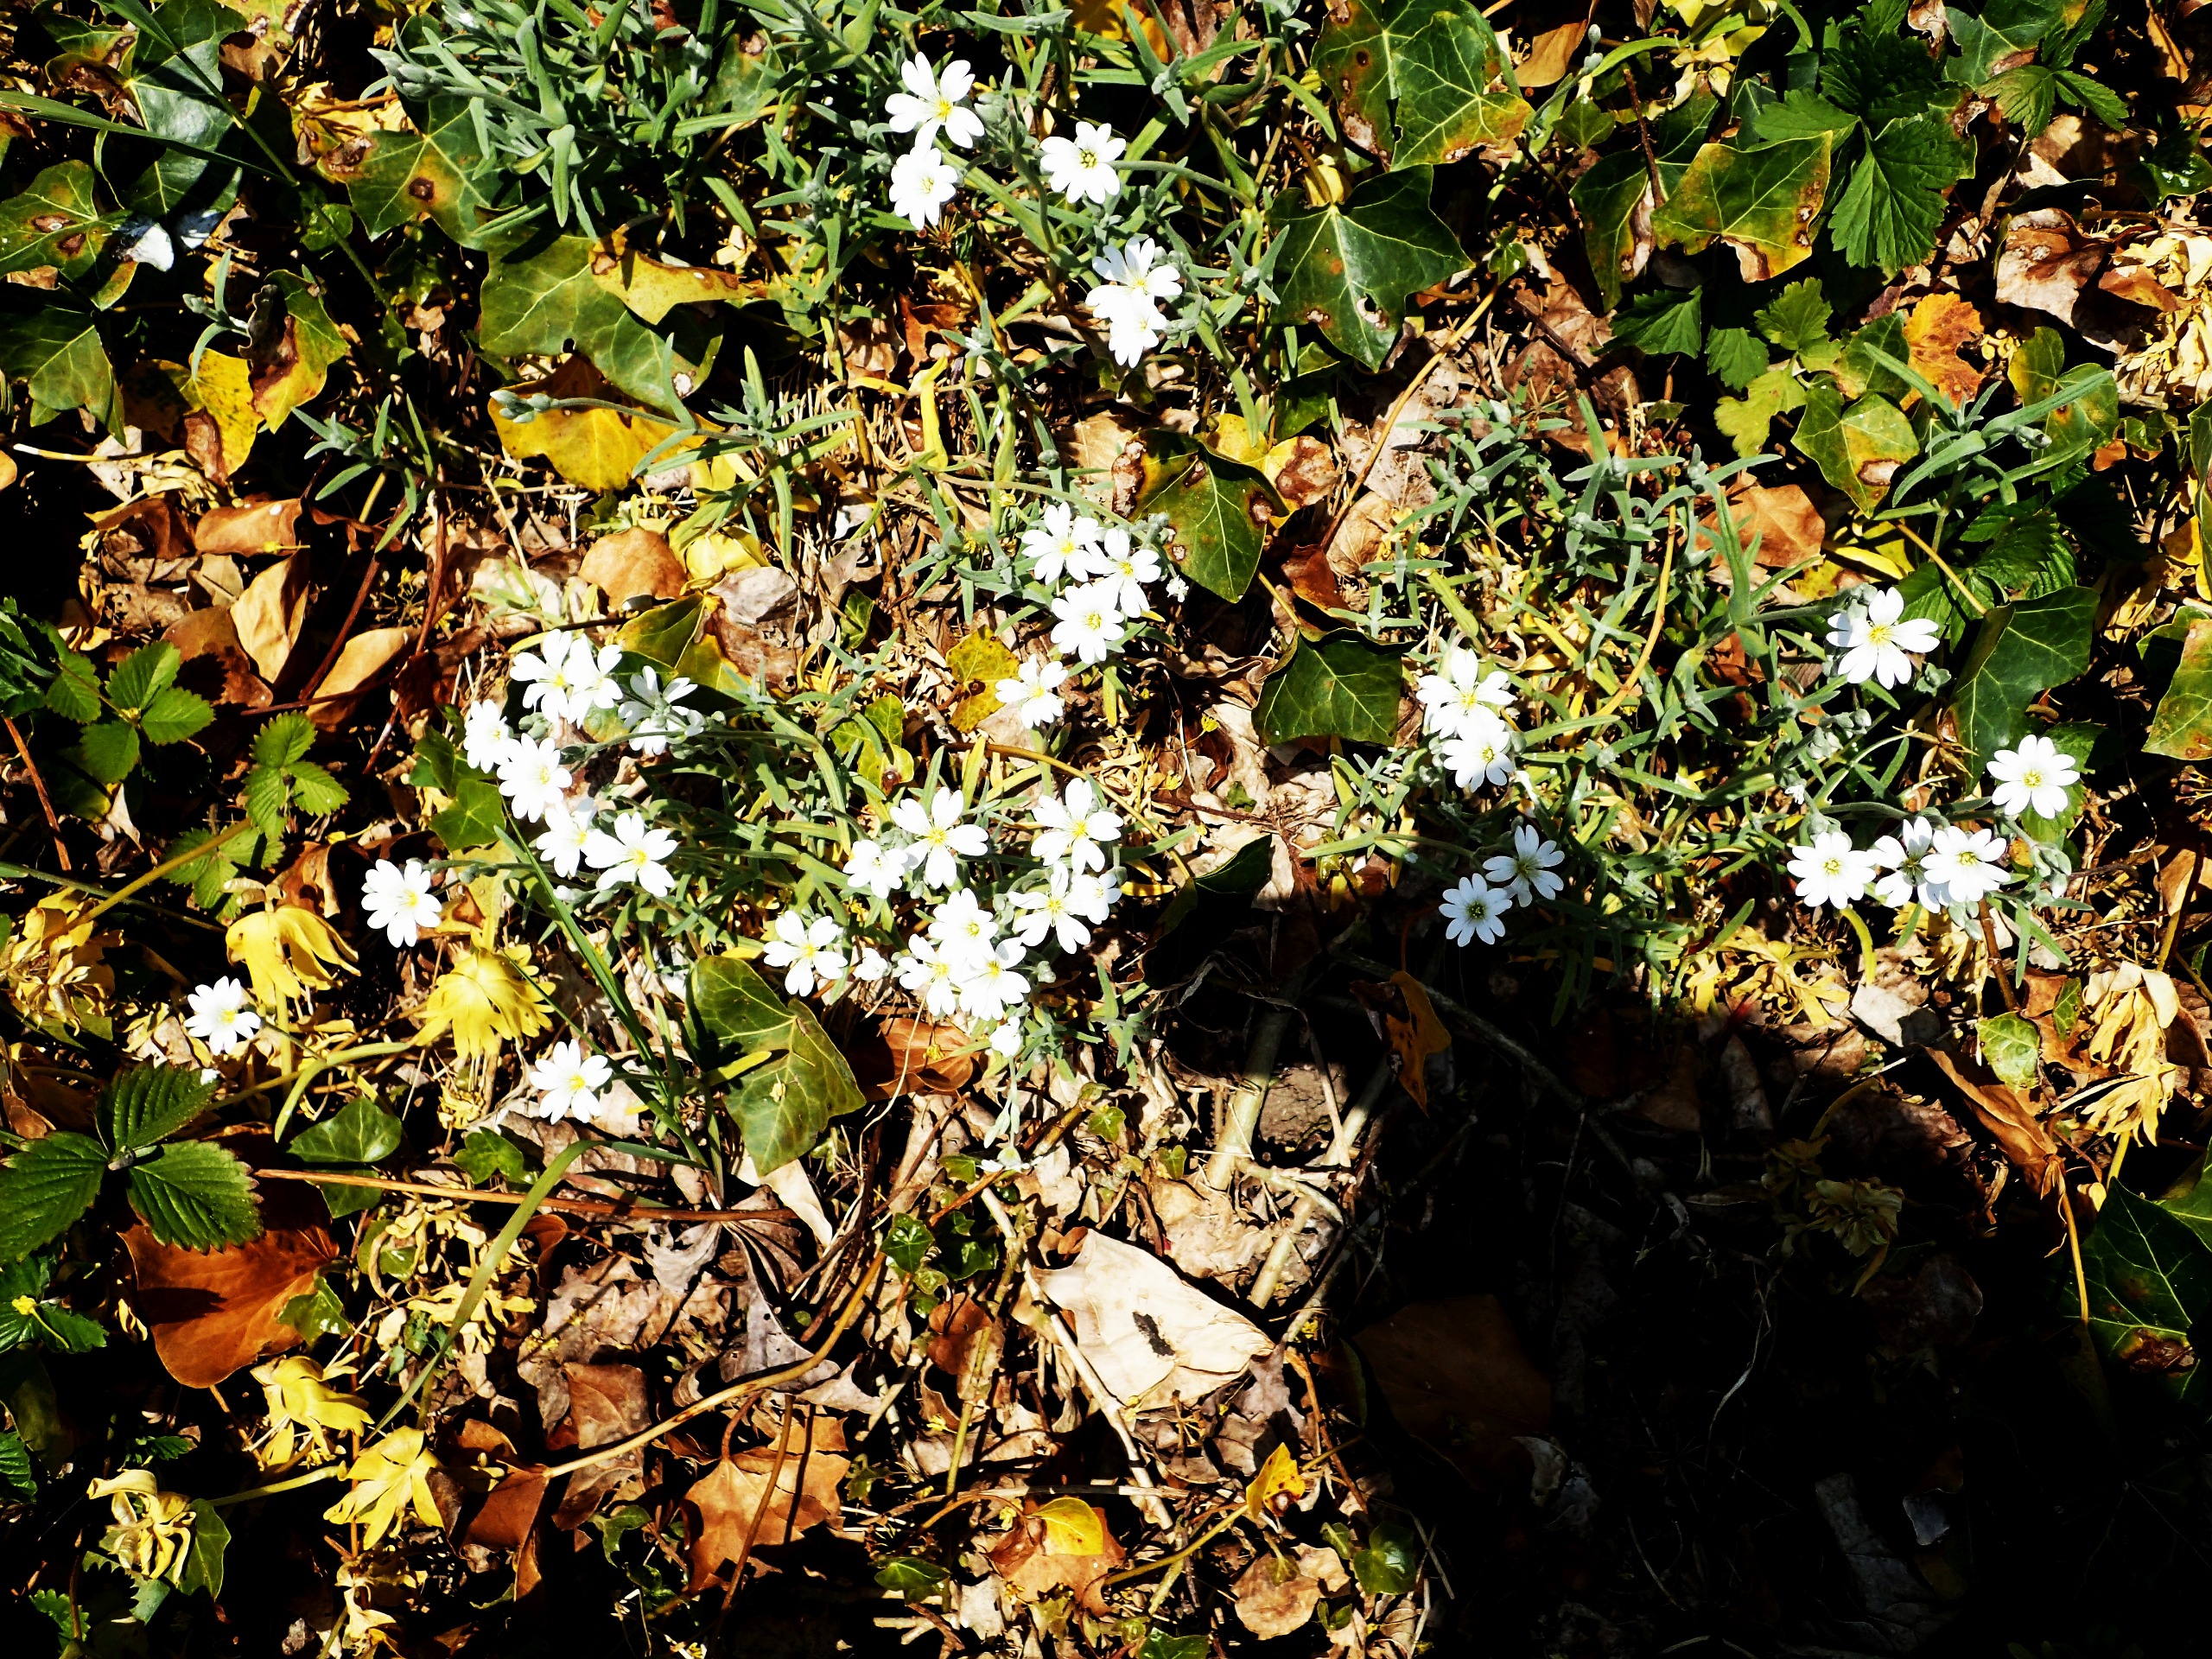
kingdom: Plantae
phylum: Tracheophyta
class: Magnoliopsida
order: Caryophyllales
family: Caryophyllaceae
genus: Cerastium
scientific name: Cerastium tomentosum
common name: Filtet hønsetarm
